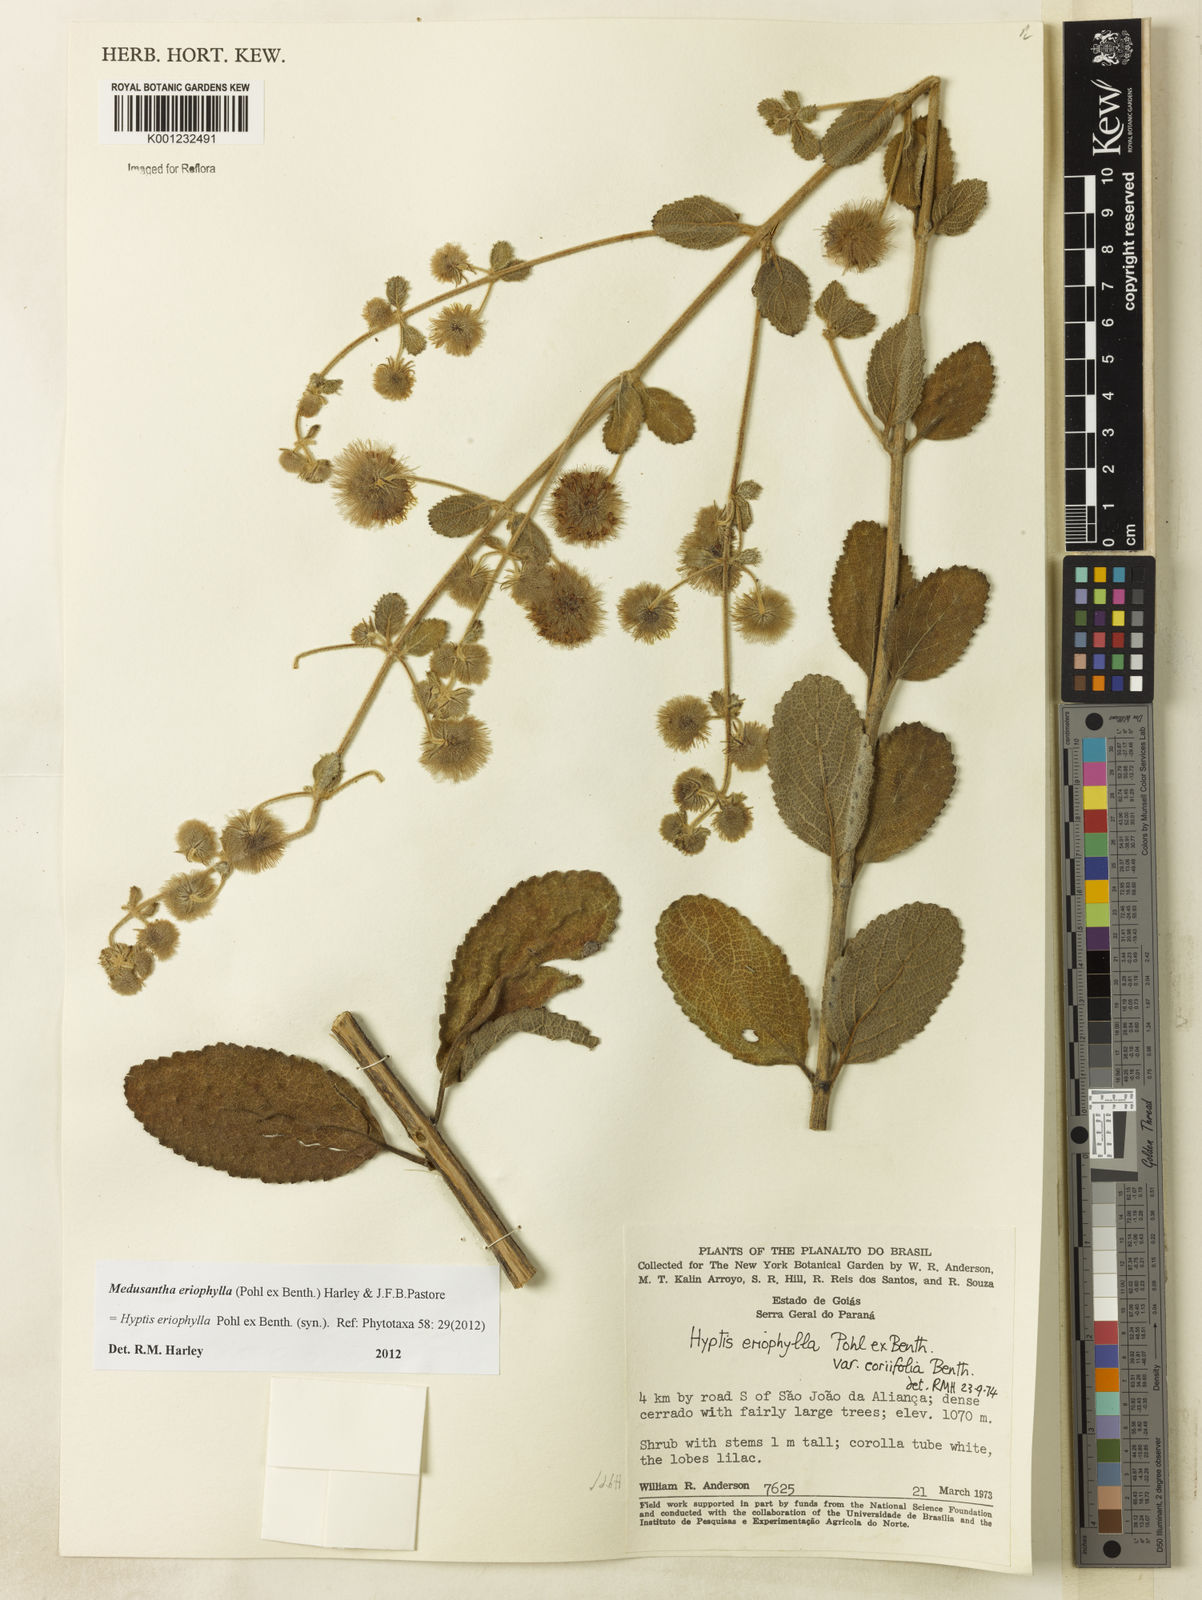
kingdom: Plantae
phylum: Tracheophyta
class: Magnoliopsida
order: Lamiales
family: Lamiaceae
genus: Medusantha
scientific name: Medusantha eriophylla
